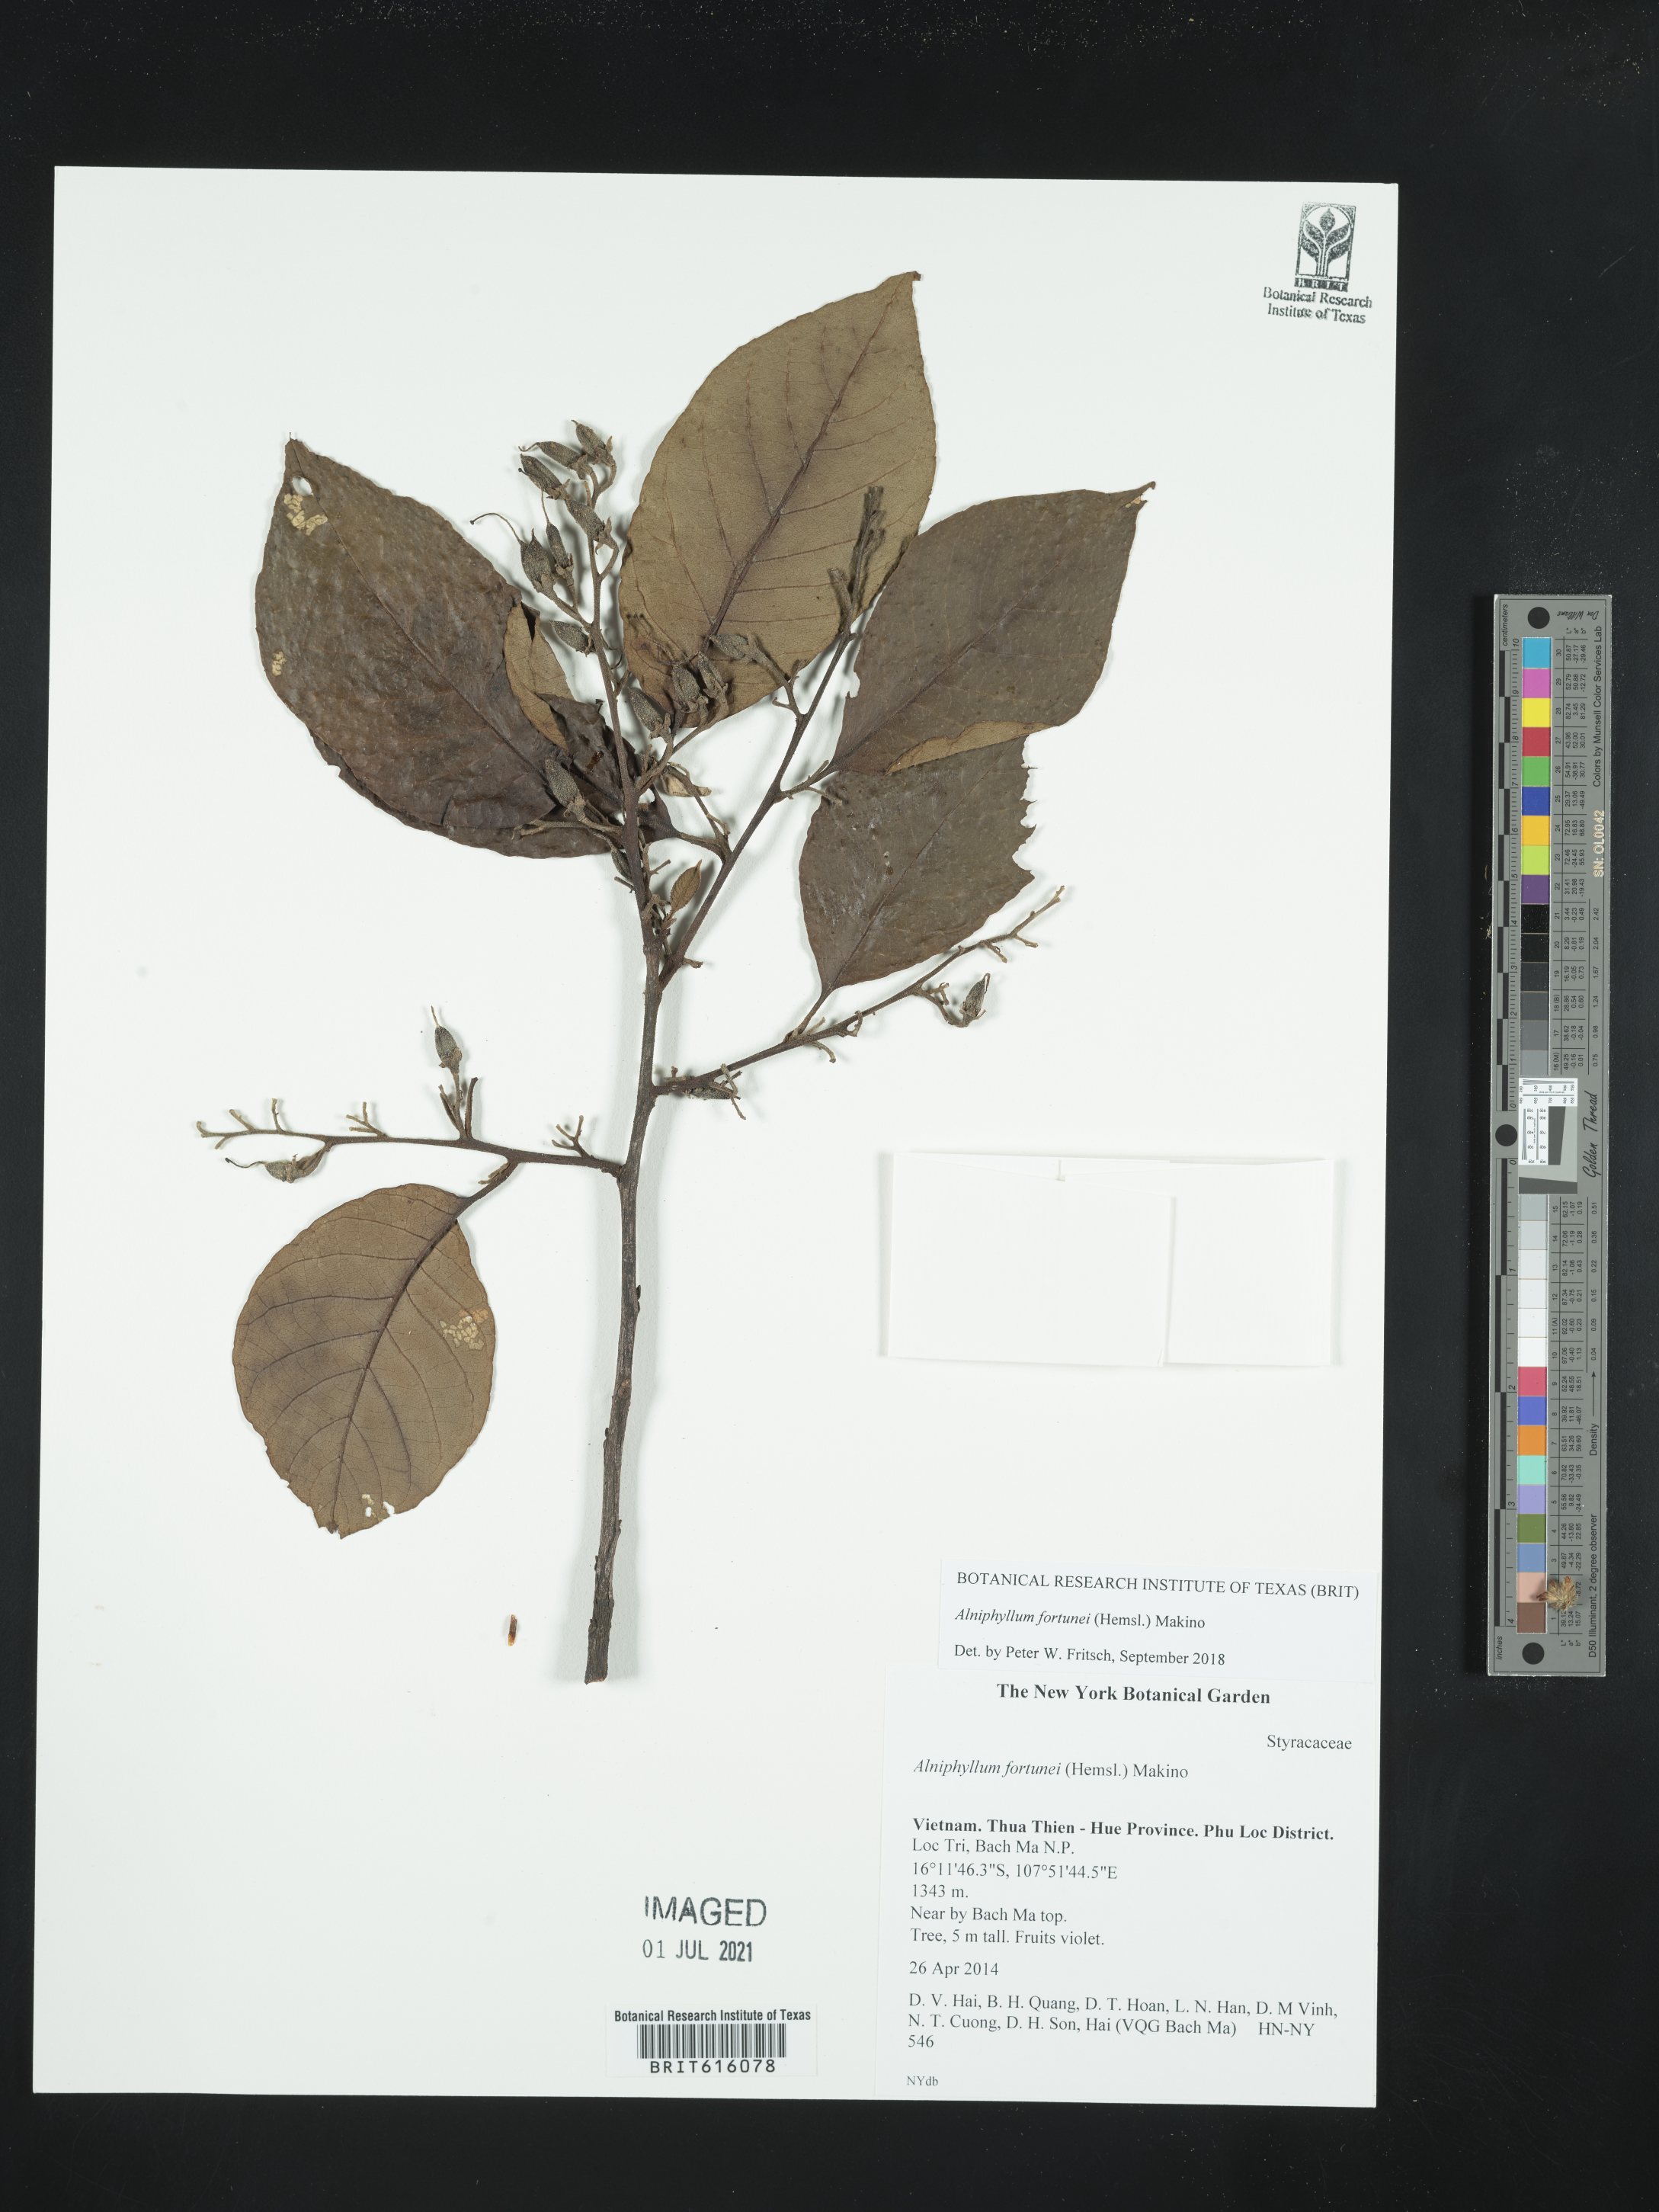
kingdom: Plantae
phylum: Tracheophyta
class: Magnoliopsida
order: Ericales
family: Styracaceae
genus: Alniphyllum
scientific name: Alniphyllum fortunei
